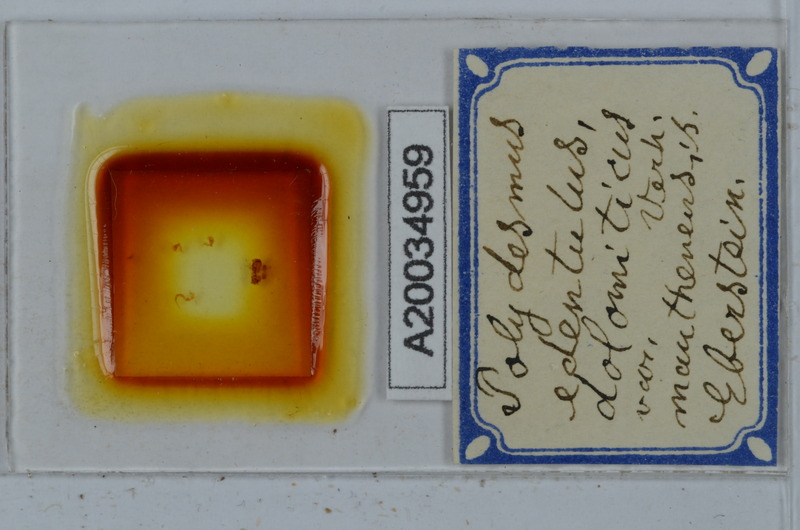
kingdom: Animalia
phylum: Arthropoda
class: Diplopoda
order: Polydesmida
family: Polydesmidae
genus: Polydesmus
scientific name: Polydesmus edentulus
